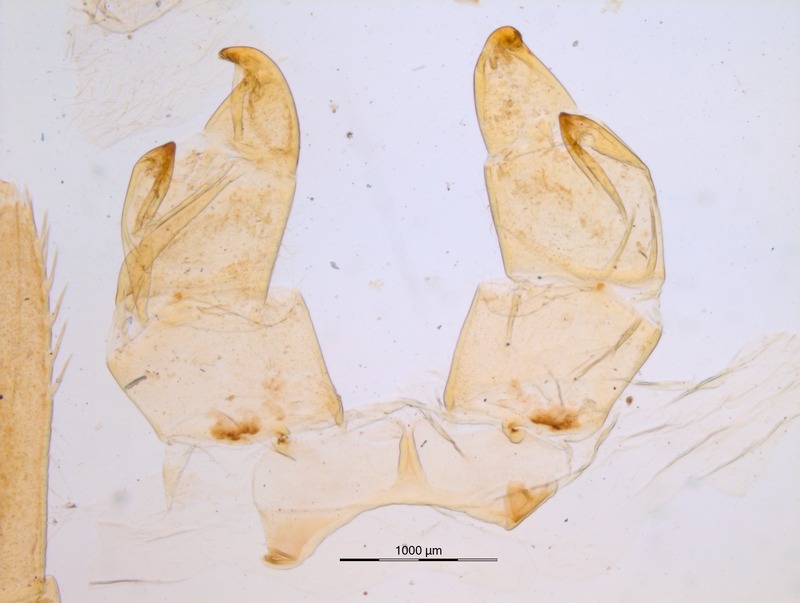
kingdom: Animalia
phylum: Arthropoda
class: Diplopoda
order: Sphaerotheriida
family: Zephroniidae
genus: Prionobelum
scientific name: Prionobelum durum
